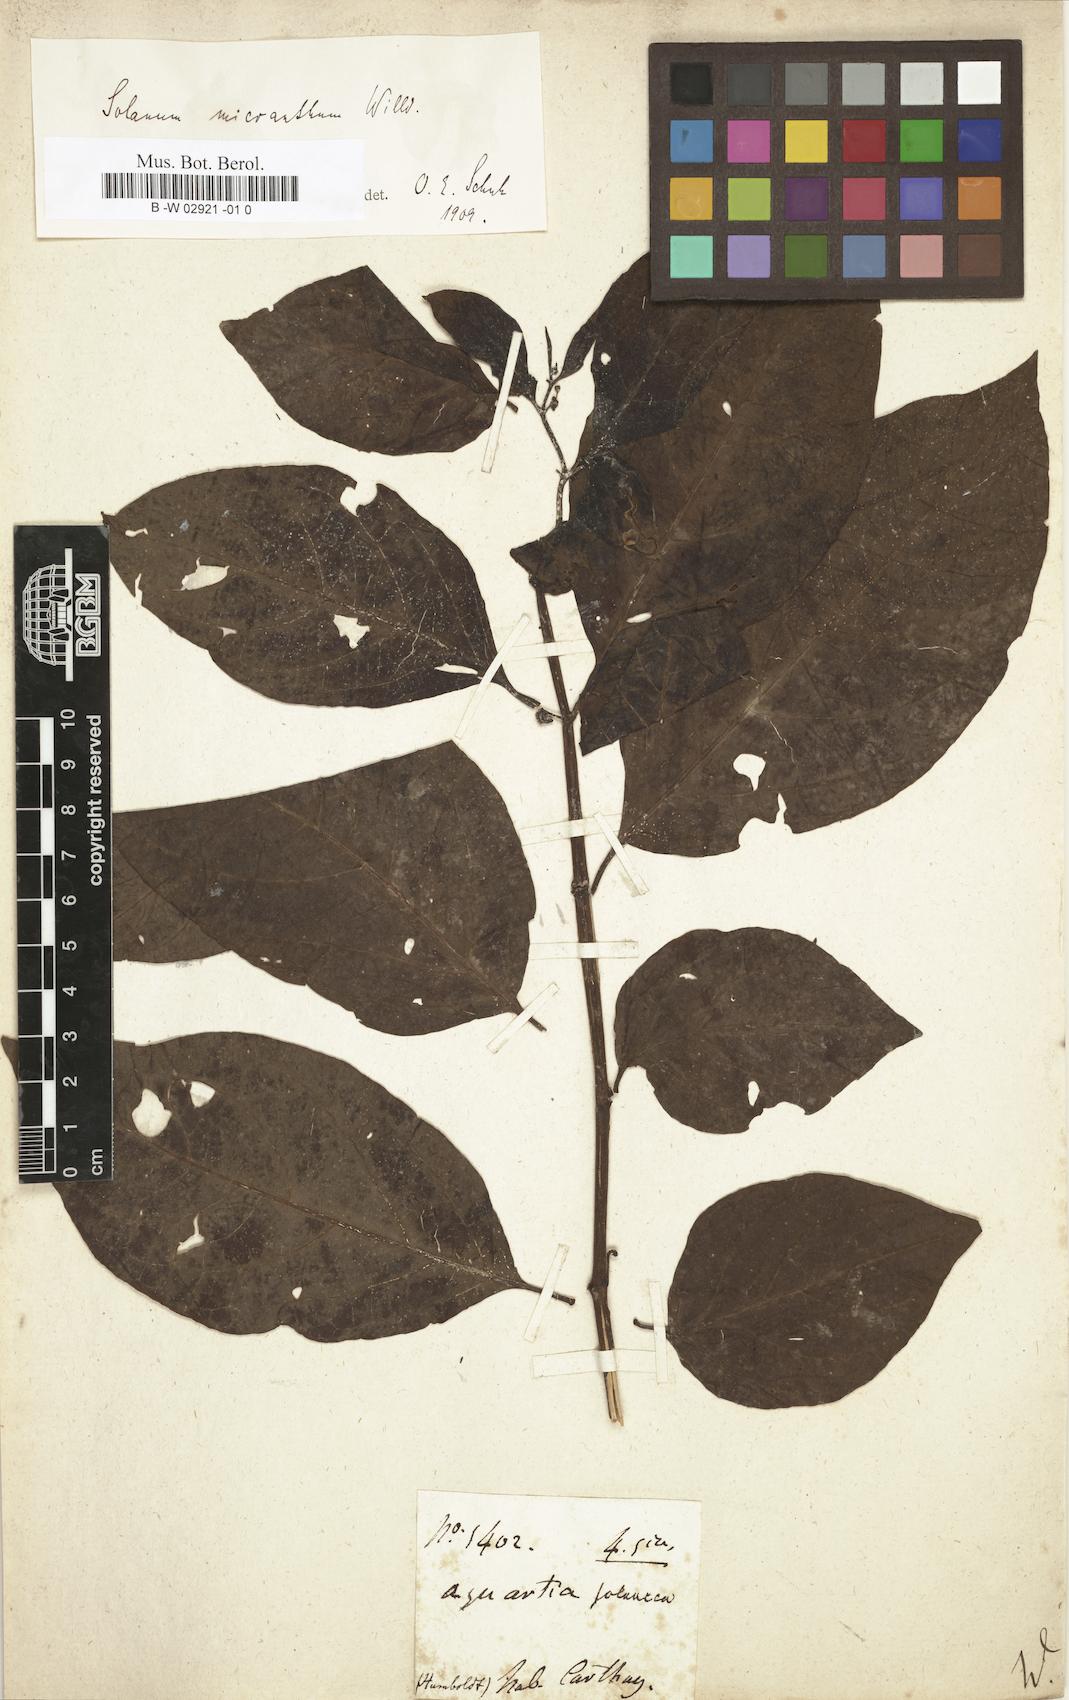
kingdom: Plantae
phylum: Tracheophyta
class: Magnoliopsida
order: Solanales
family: Solanaceae
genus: Solanum
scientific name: Solanum tetramerum
